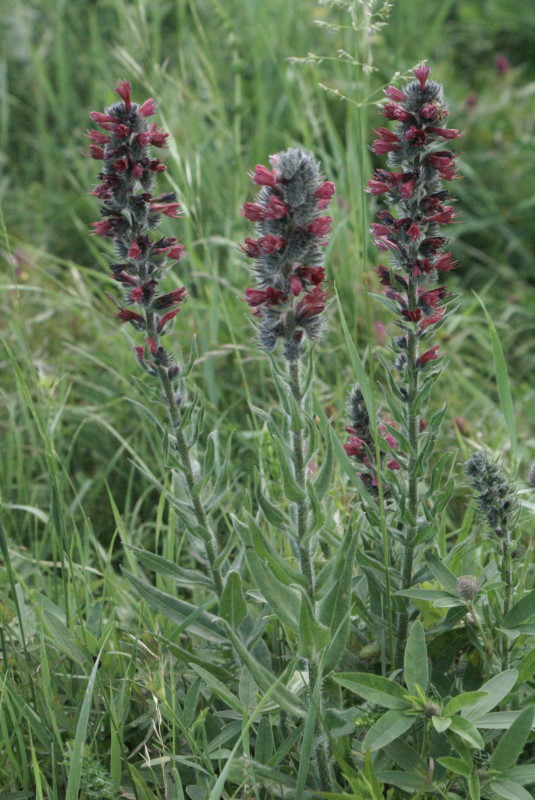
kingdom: Plantae
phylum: Tracheophyta
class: Magnoliopsida
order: Boraginales
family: Boraginaceae
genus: Echium
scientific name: Echium russicum
